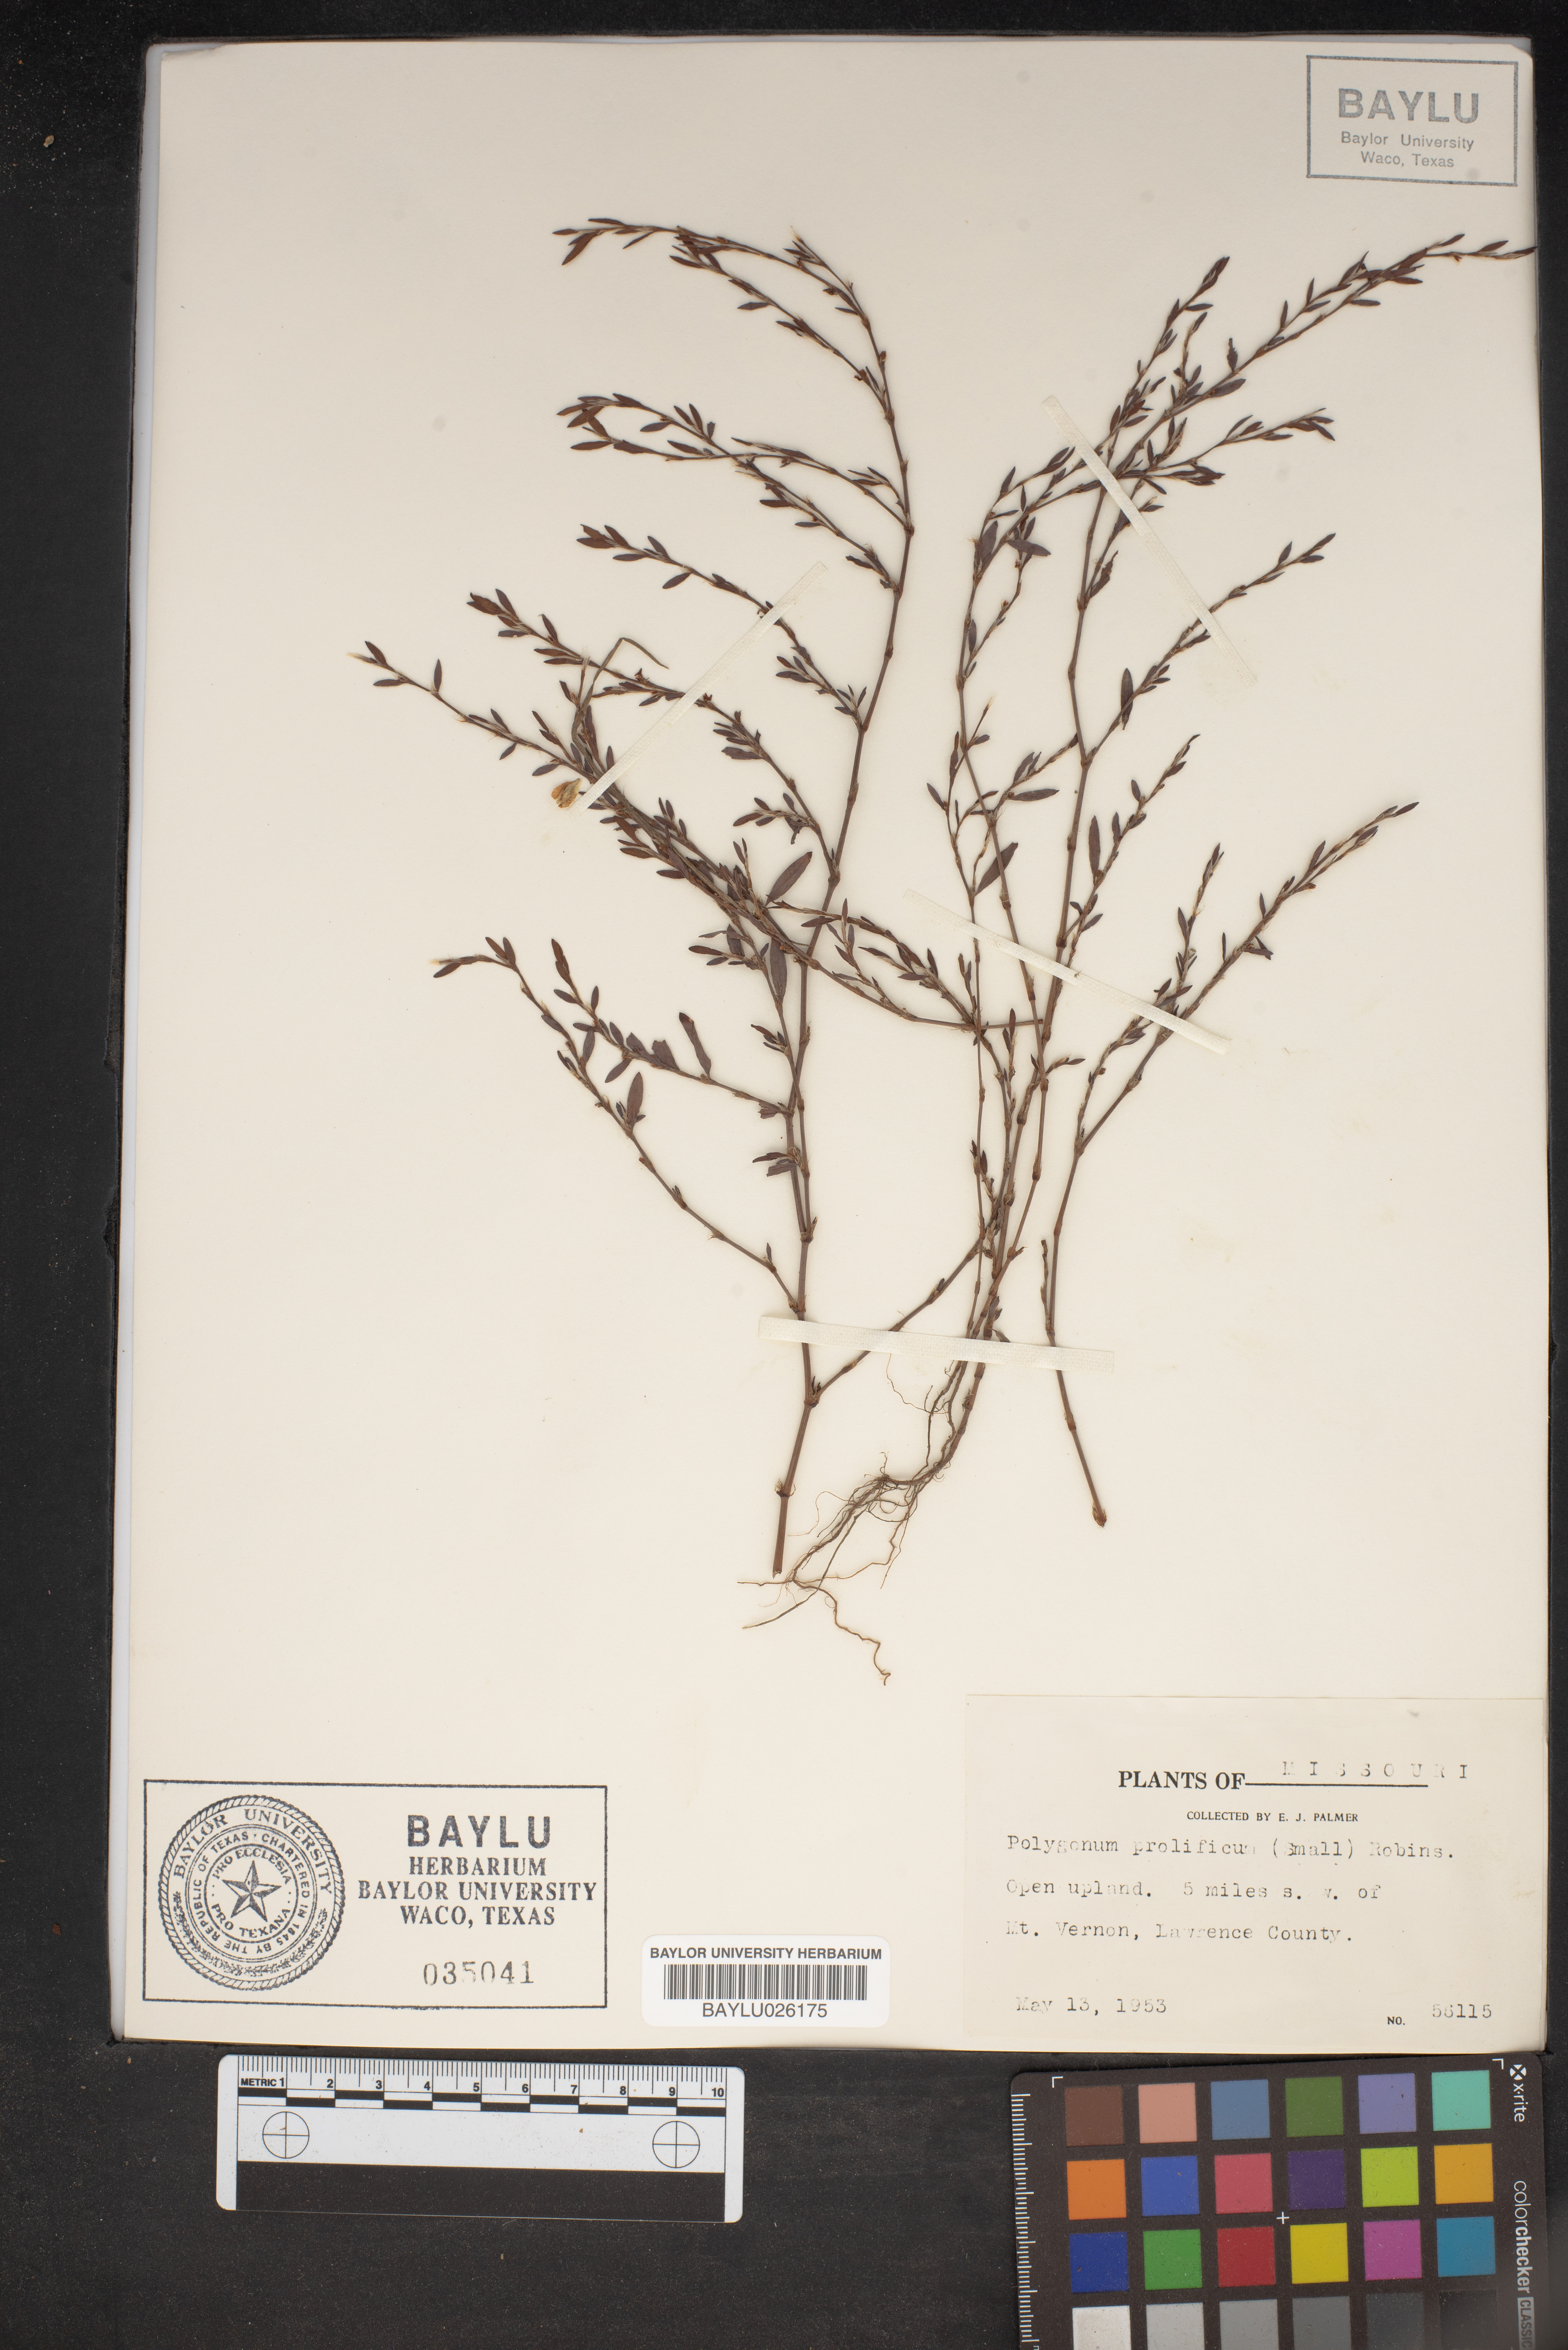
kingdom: Plantae
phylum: Tracheophyta
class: Magnoliopsida
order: Caryophyllales
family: Polygonaceae
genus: Polygonum
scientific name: Polygonum ramosissimum
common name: Bushy knotweed
